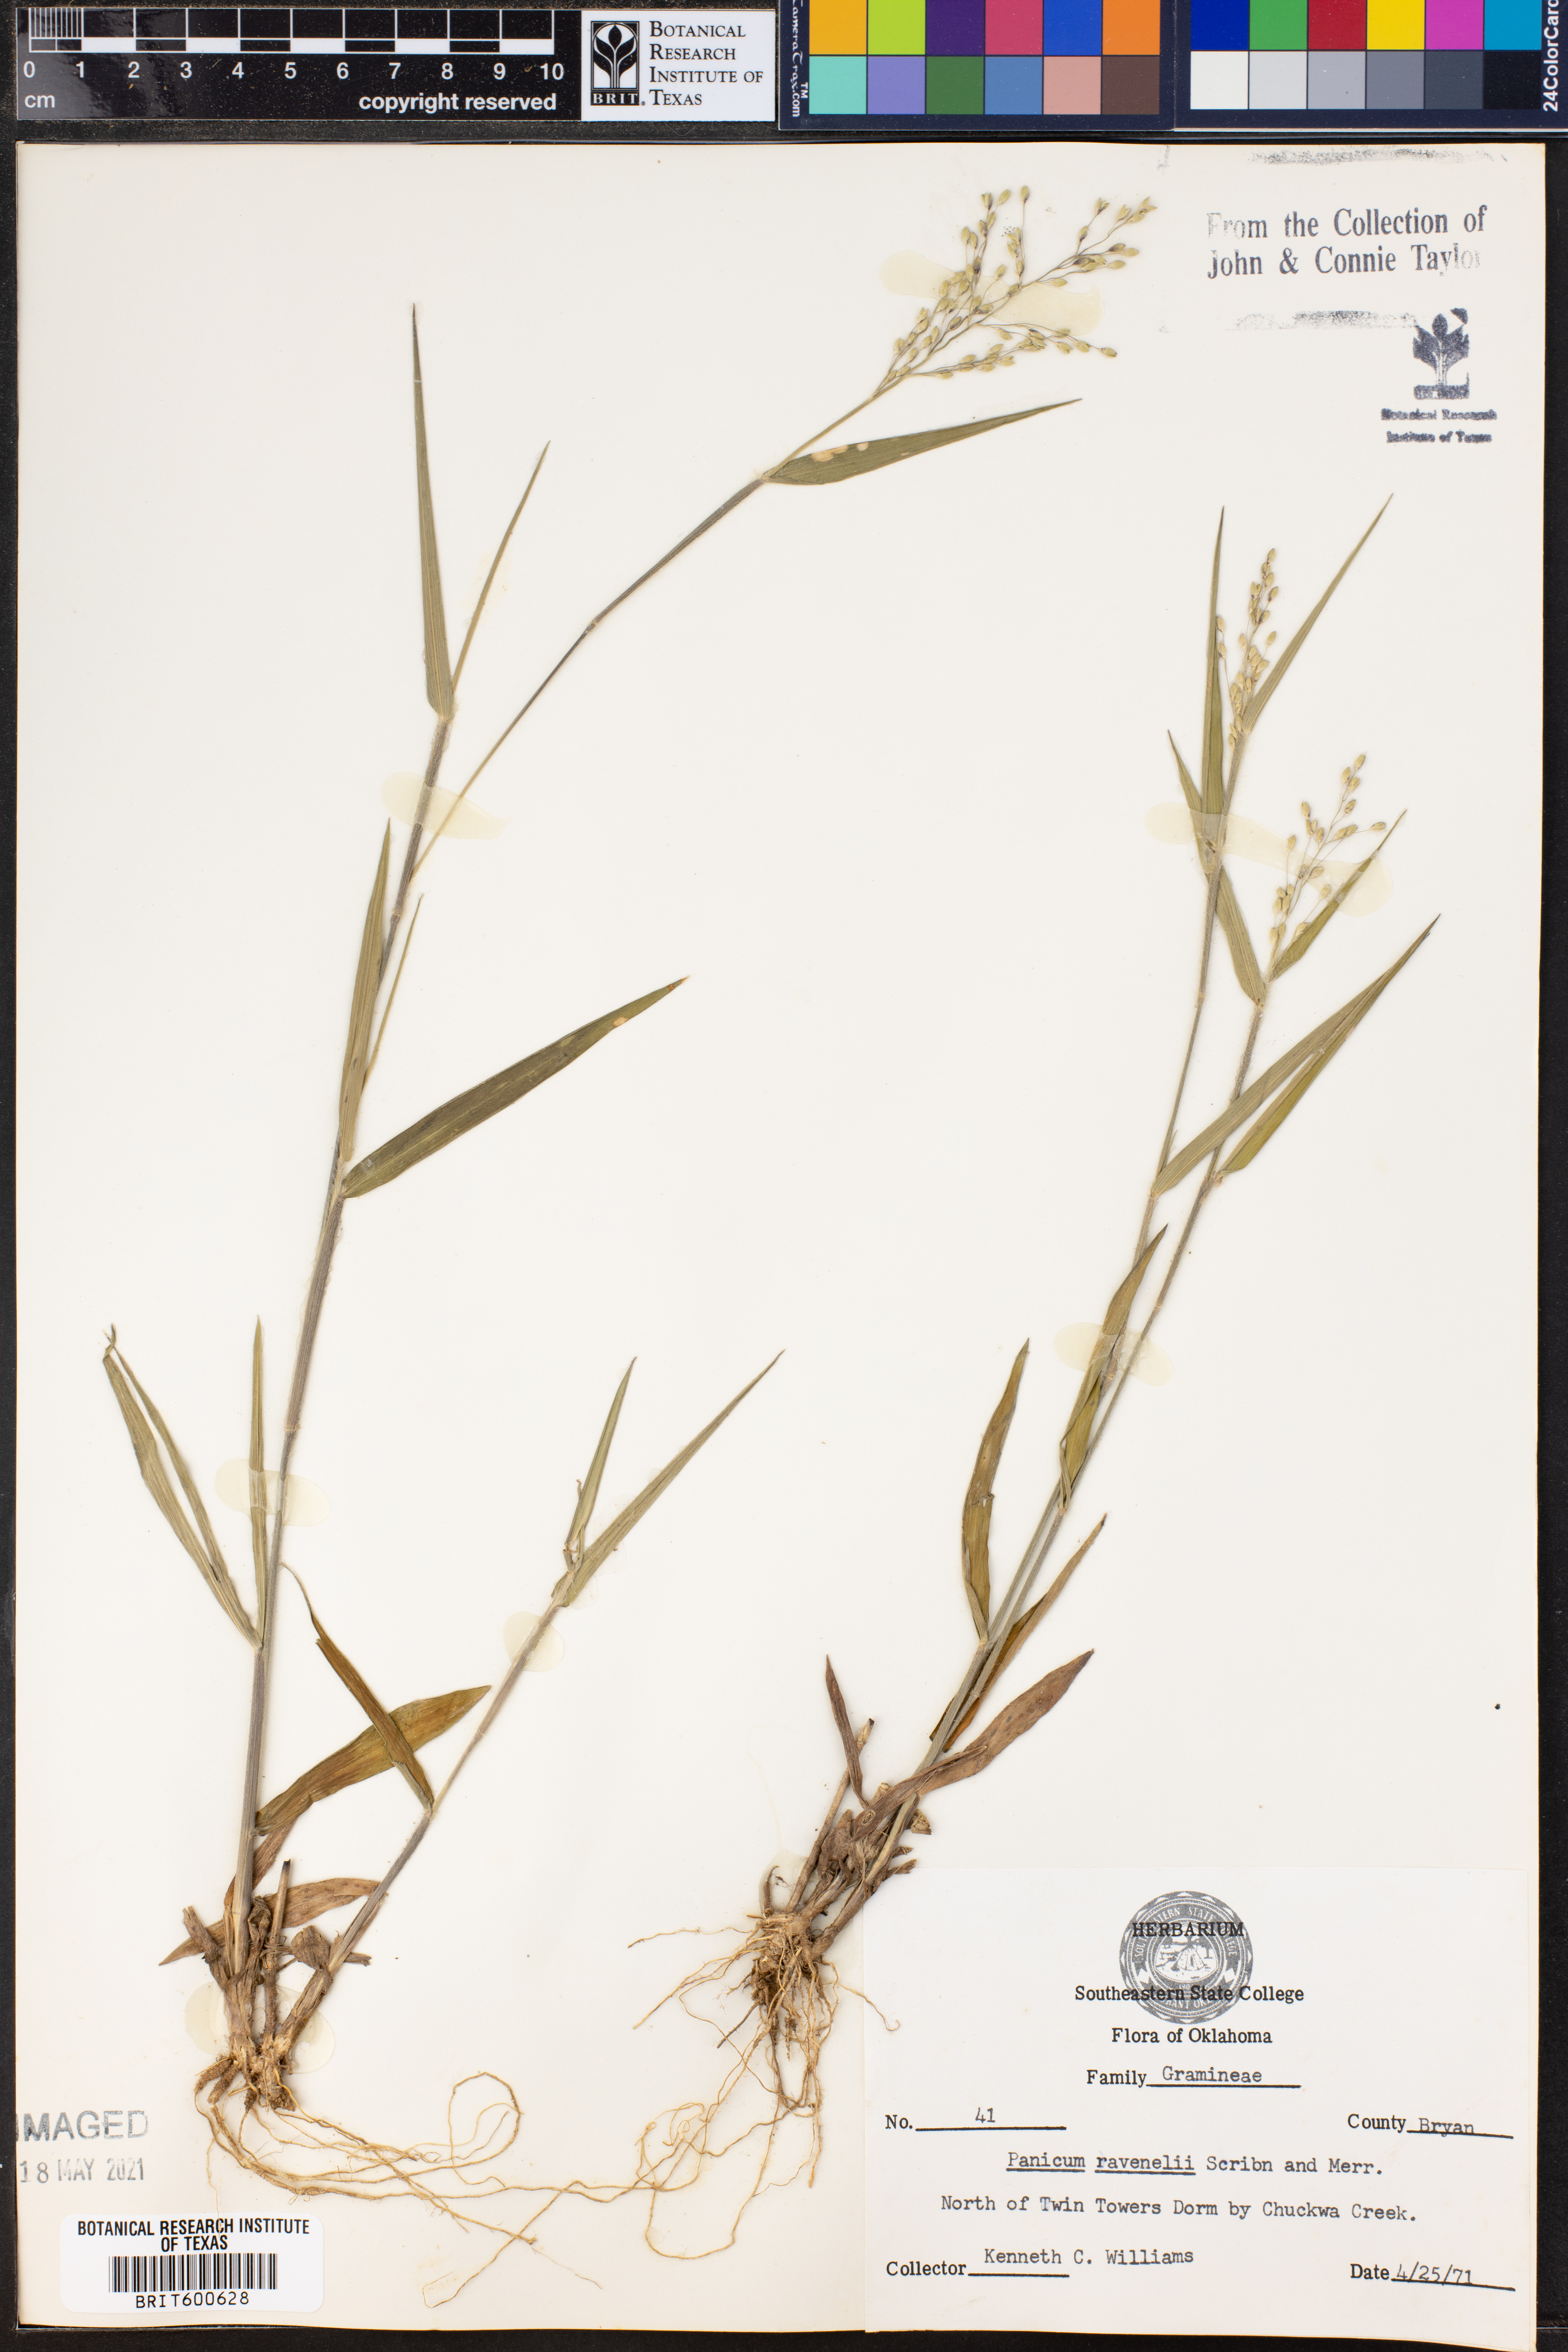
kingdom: Plantae
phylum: Tracheophyta
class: Liliopsida
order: Poales
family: Poaceae
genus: Dichanthelium
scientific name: Dichanthelium ravenelii
